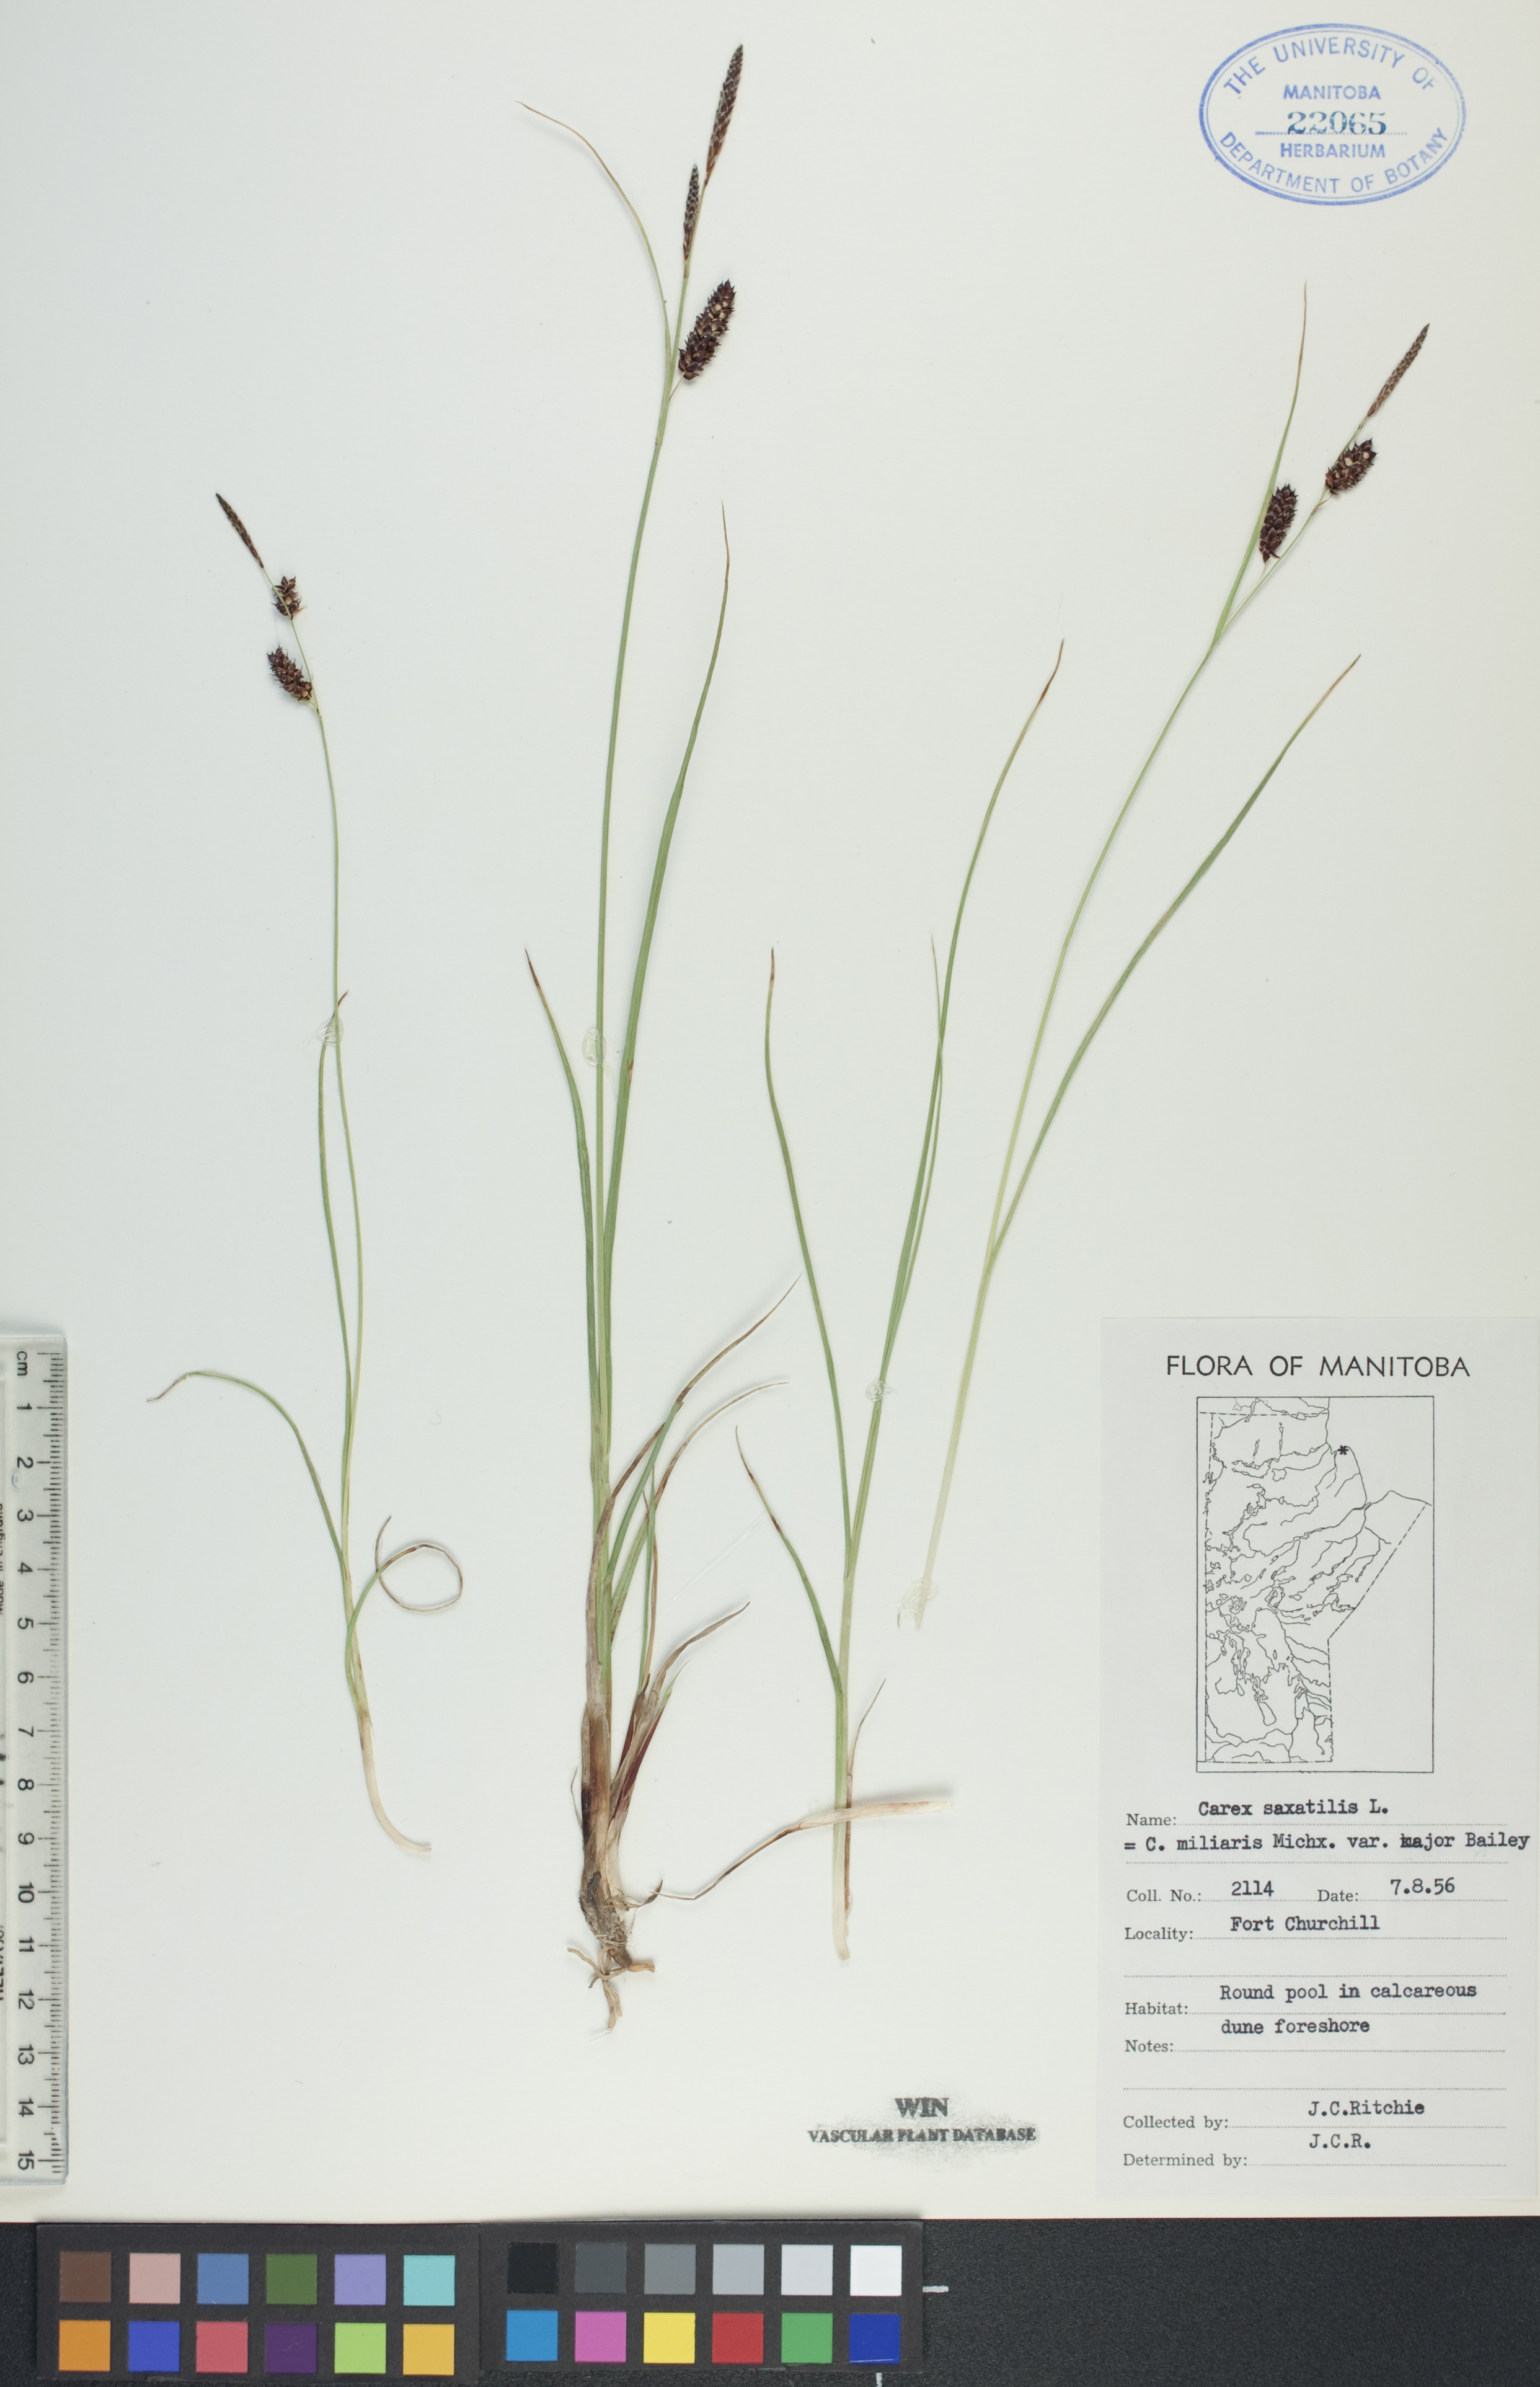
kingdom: Plantae
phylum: Tracheophyta
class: Liliopsida
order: Poales
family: Cyperaceae
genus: Carex
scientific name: Carex saxatilis
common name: Russet sedge
